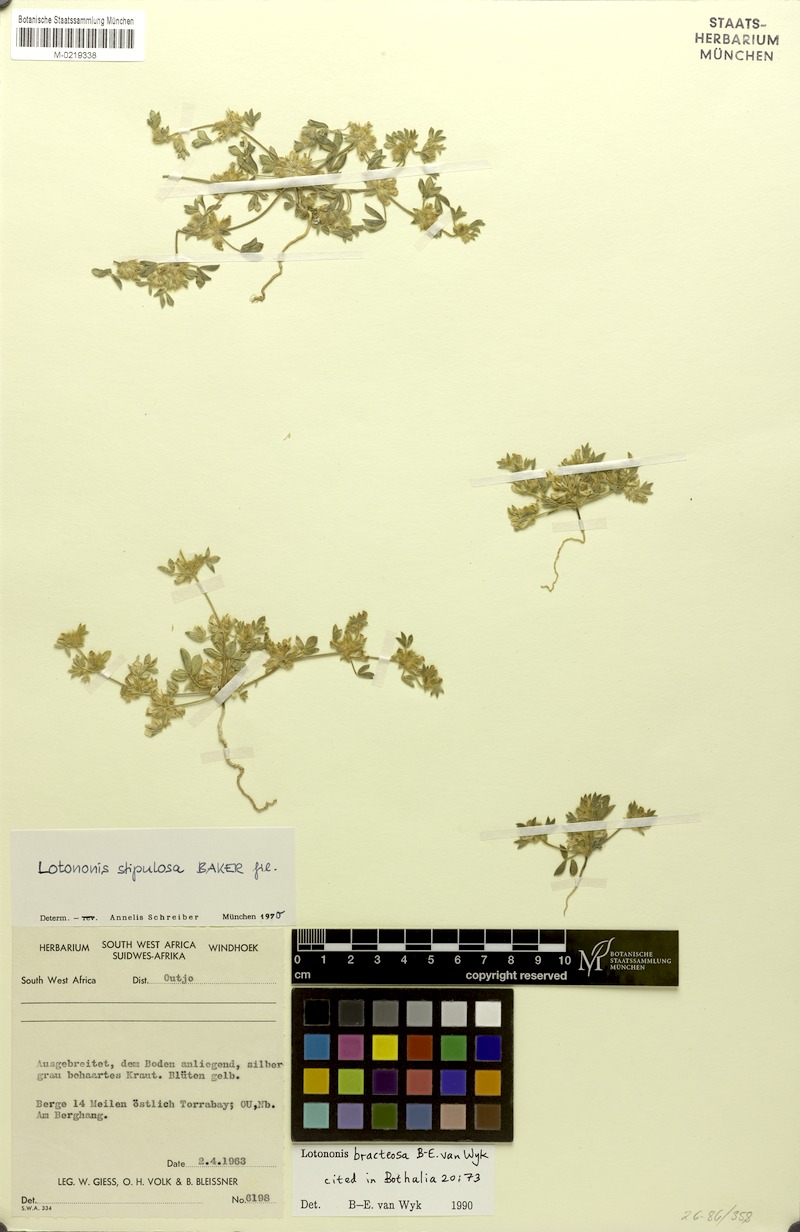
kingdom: Plantae
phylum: Tracheophyta
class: Magnoliopsida
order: Fabales
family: Fabaceae
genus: Leobordea
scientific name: Leobordea bracteosa
